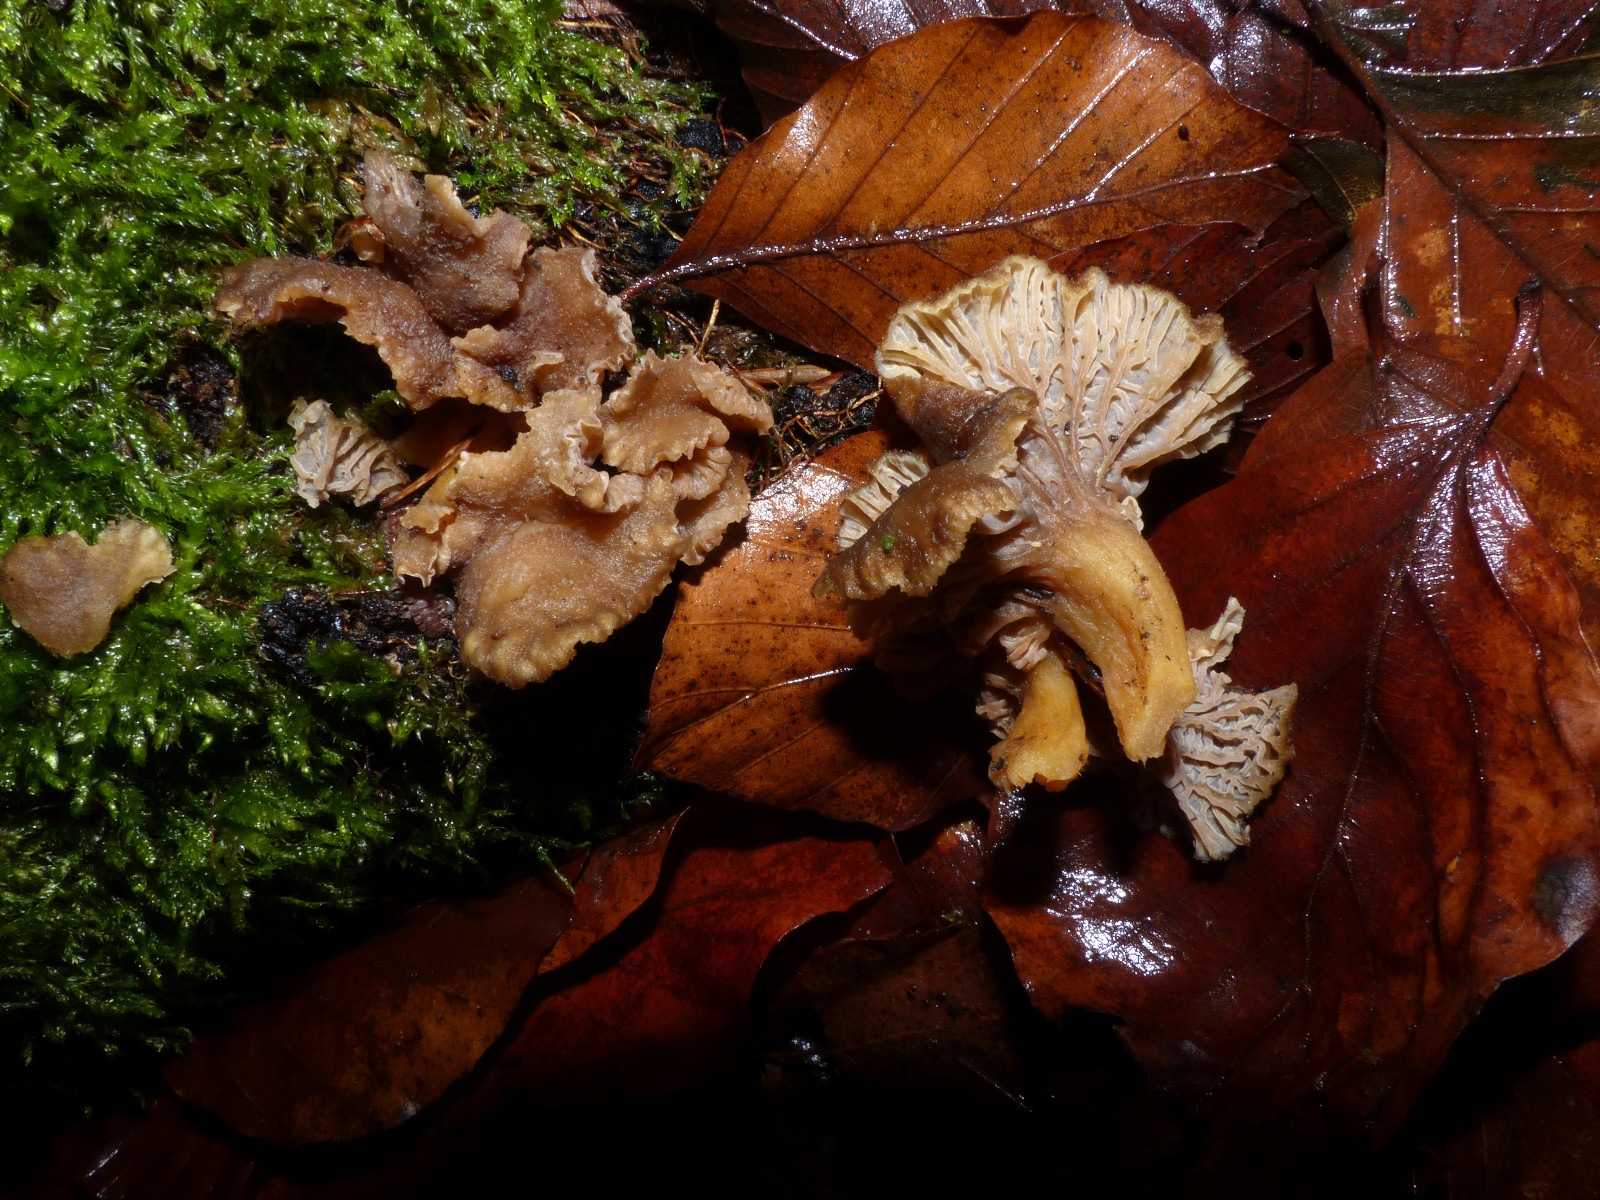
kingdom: Fungi
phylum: Basidiomycota
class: Agaricomycetes
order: Cantharellales
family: Hydnaceae
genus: Craterellus
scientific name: Craterellus tubaeformis
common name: tragt-kantarel
